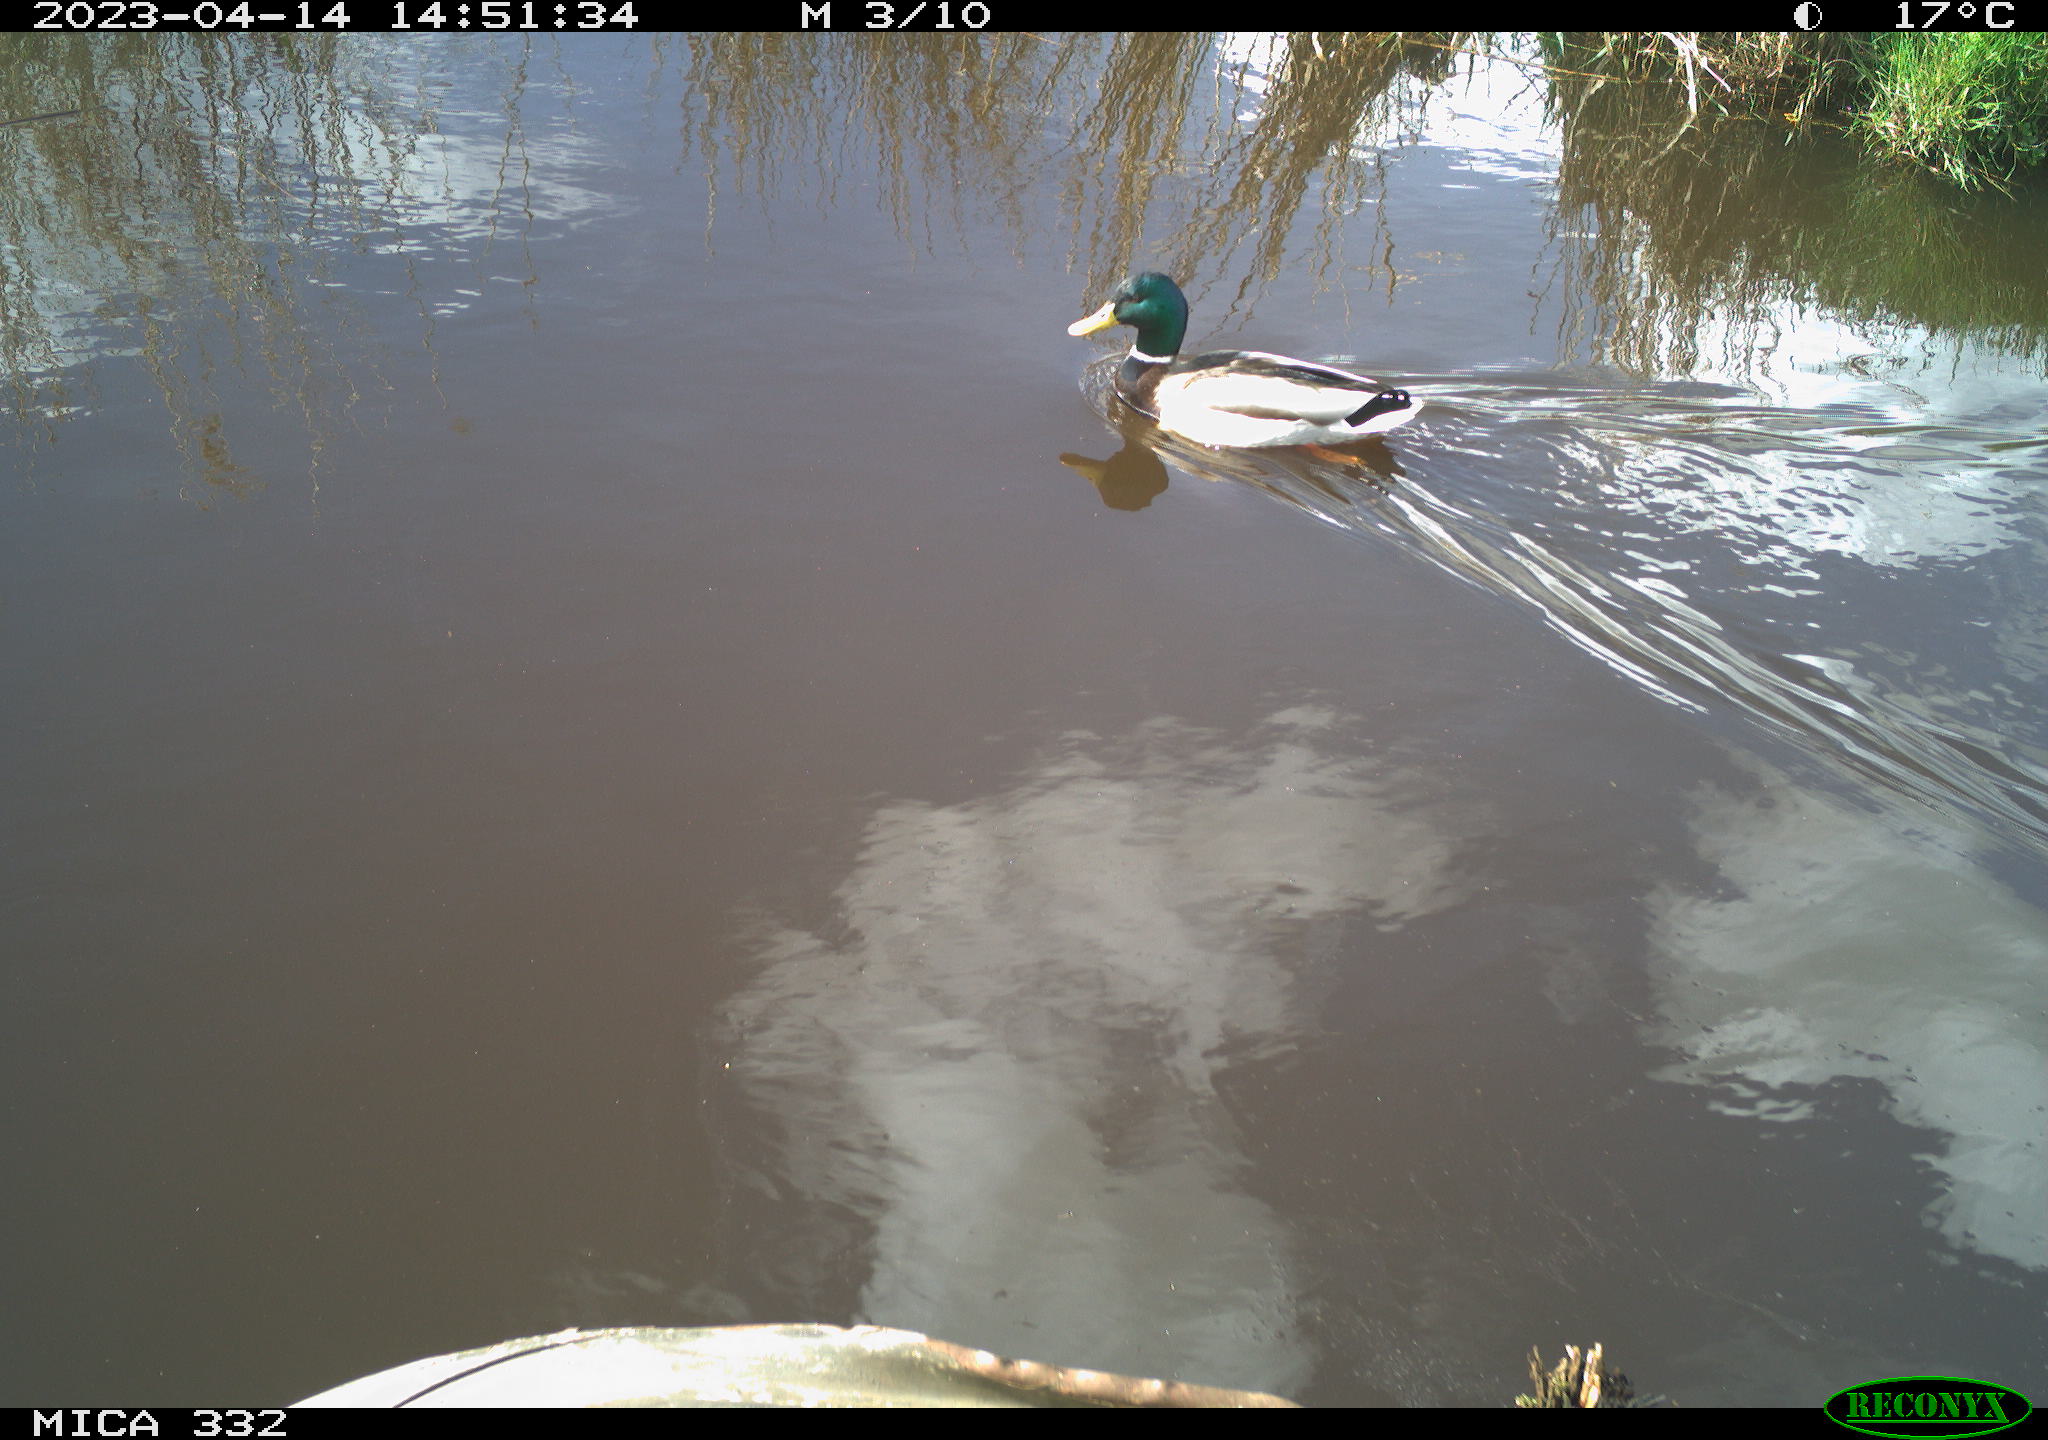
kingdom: Animalia
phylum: Chordata
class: Aves
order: Anseriformes
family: Anatidae
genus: Anas
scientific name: Anas
